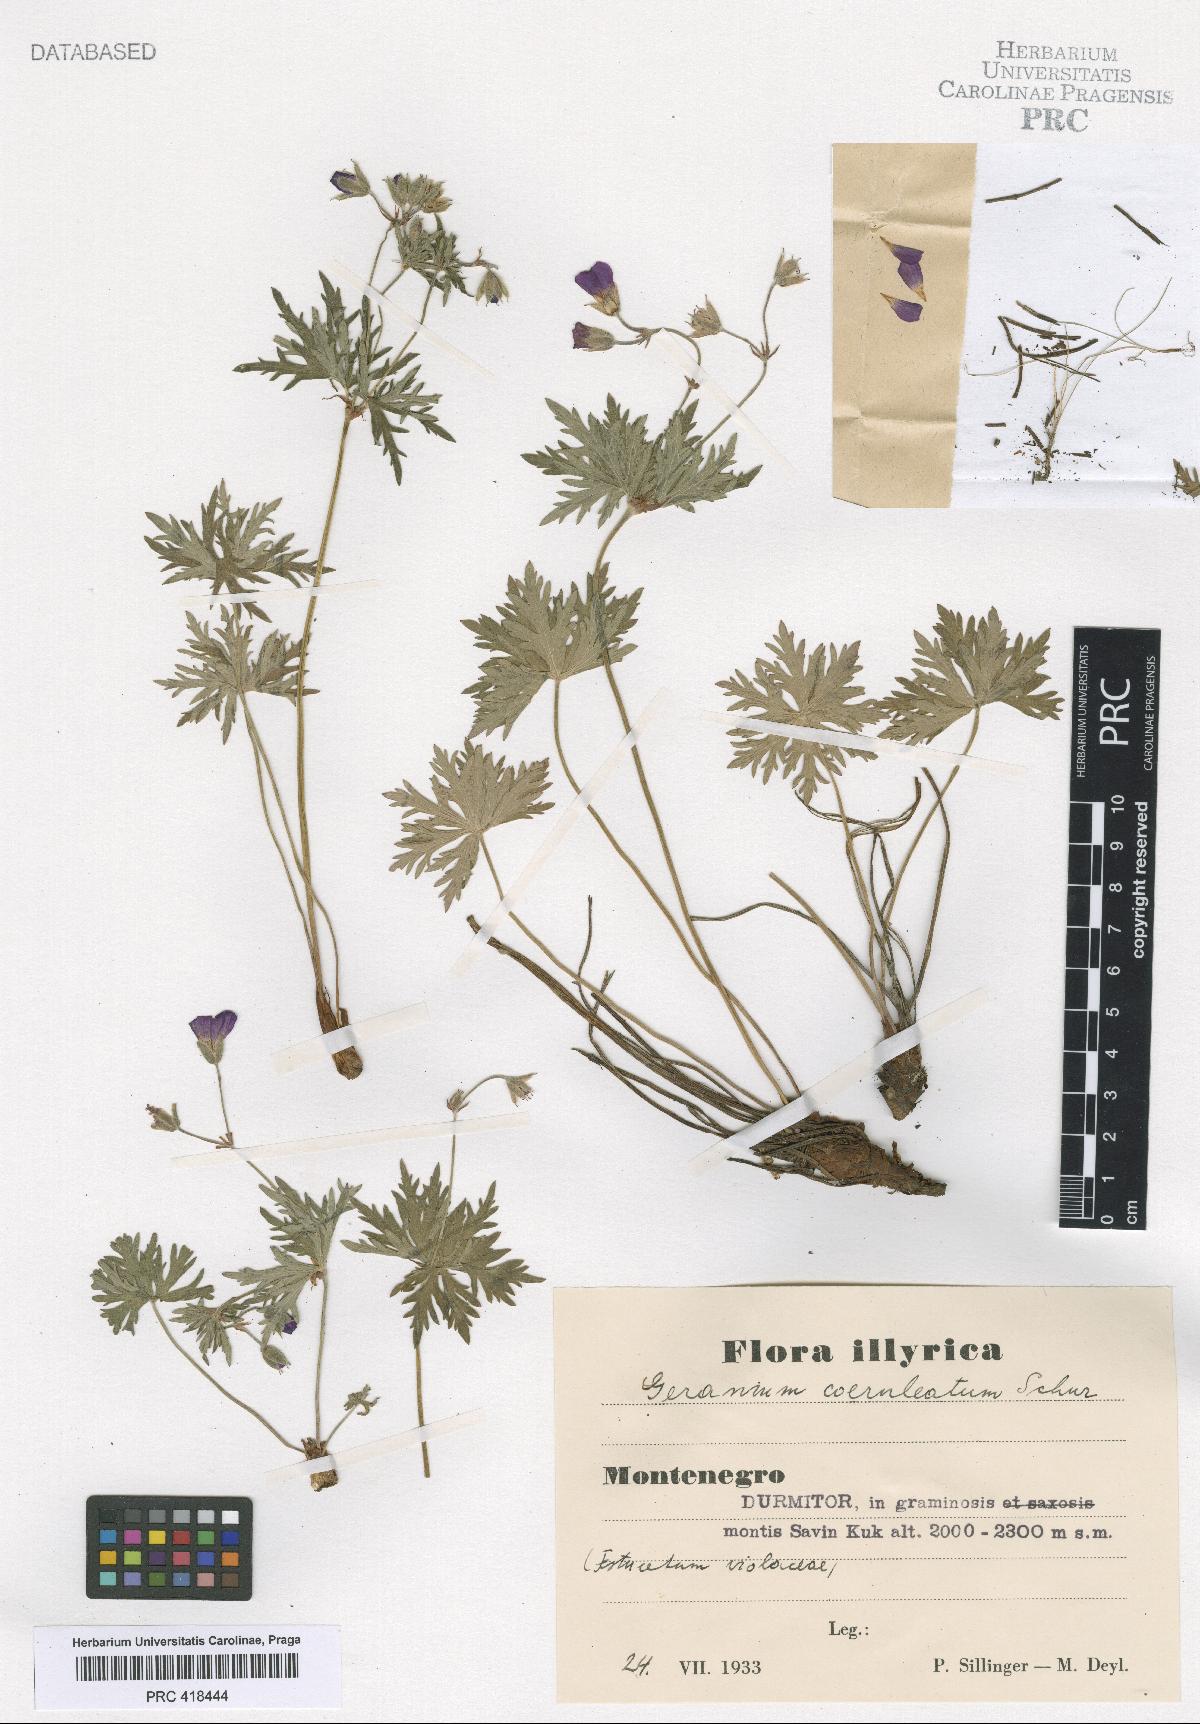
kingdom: Plantae
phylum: Tracheophyta
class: Magnoliopsida
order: Geraniales
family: Geraniaceae
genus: Geranium
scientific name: Geranium caeruleatum
